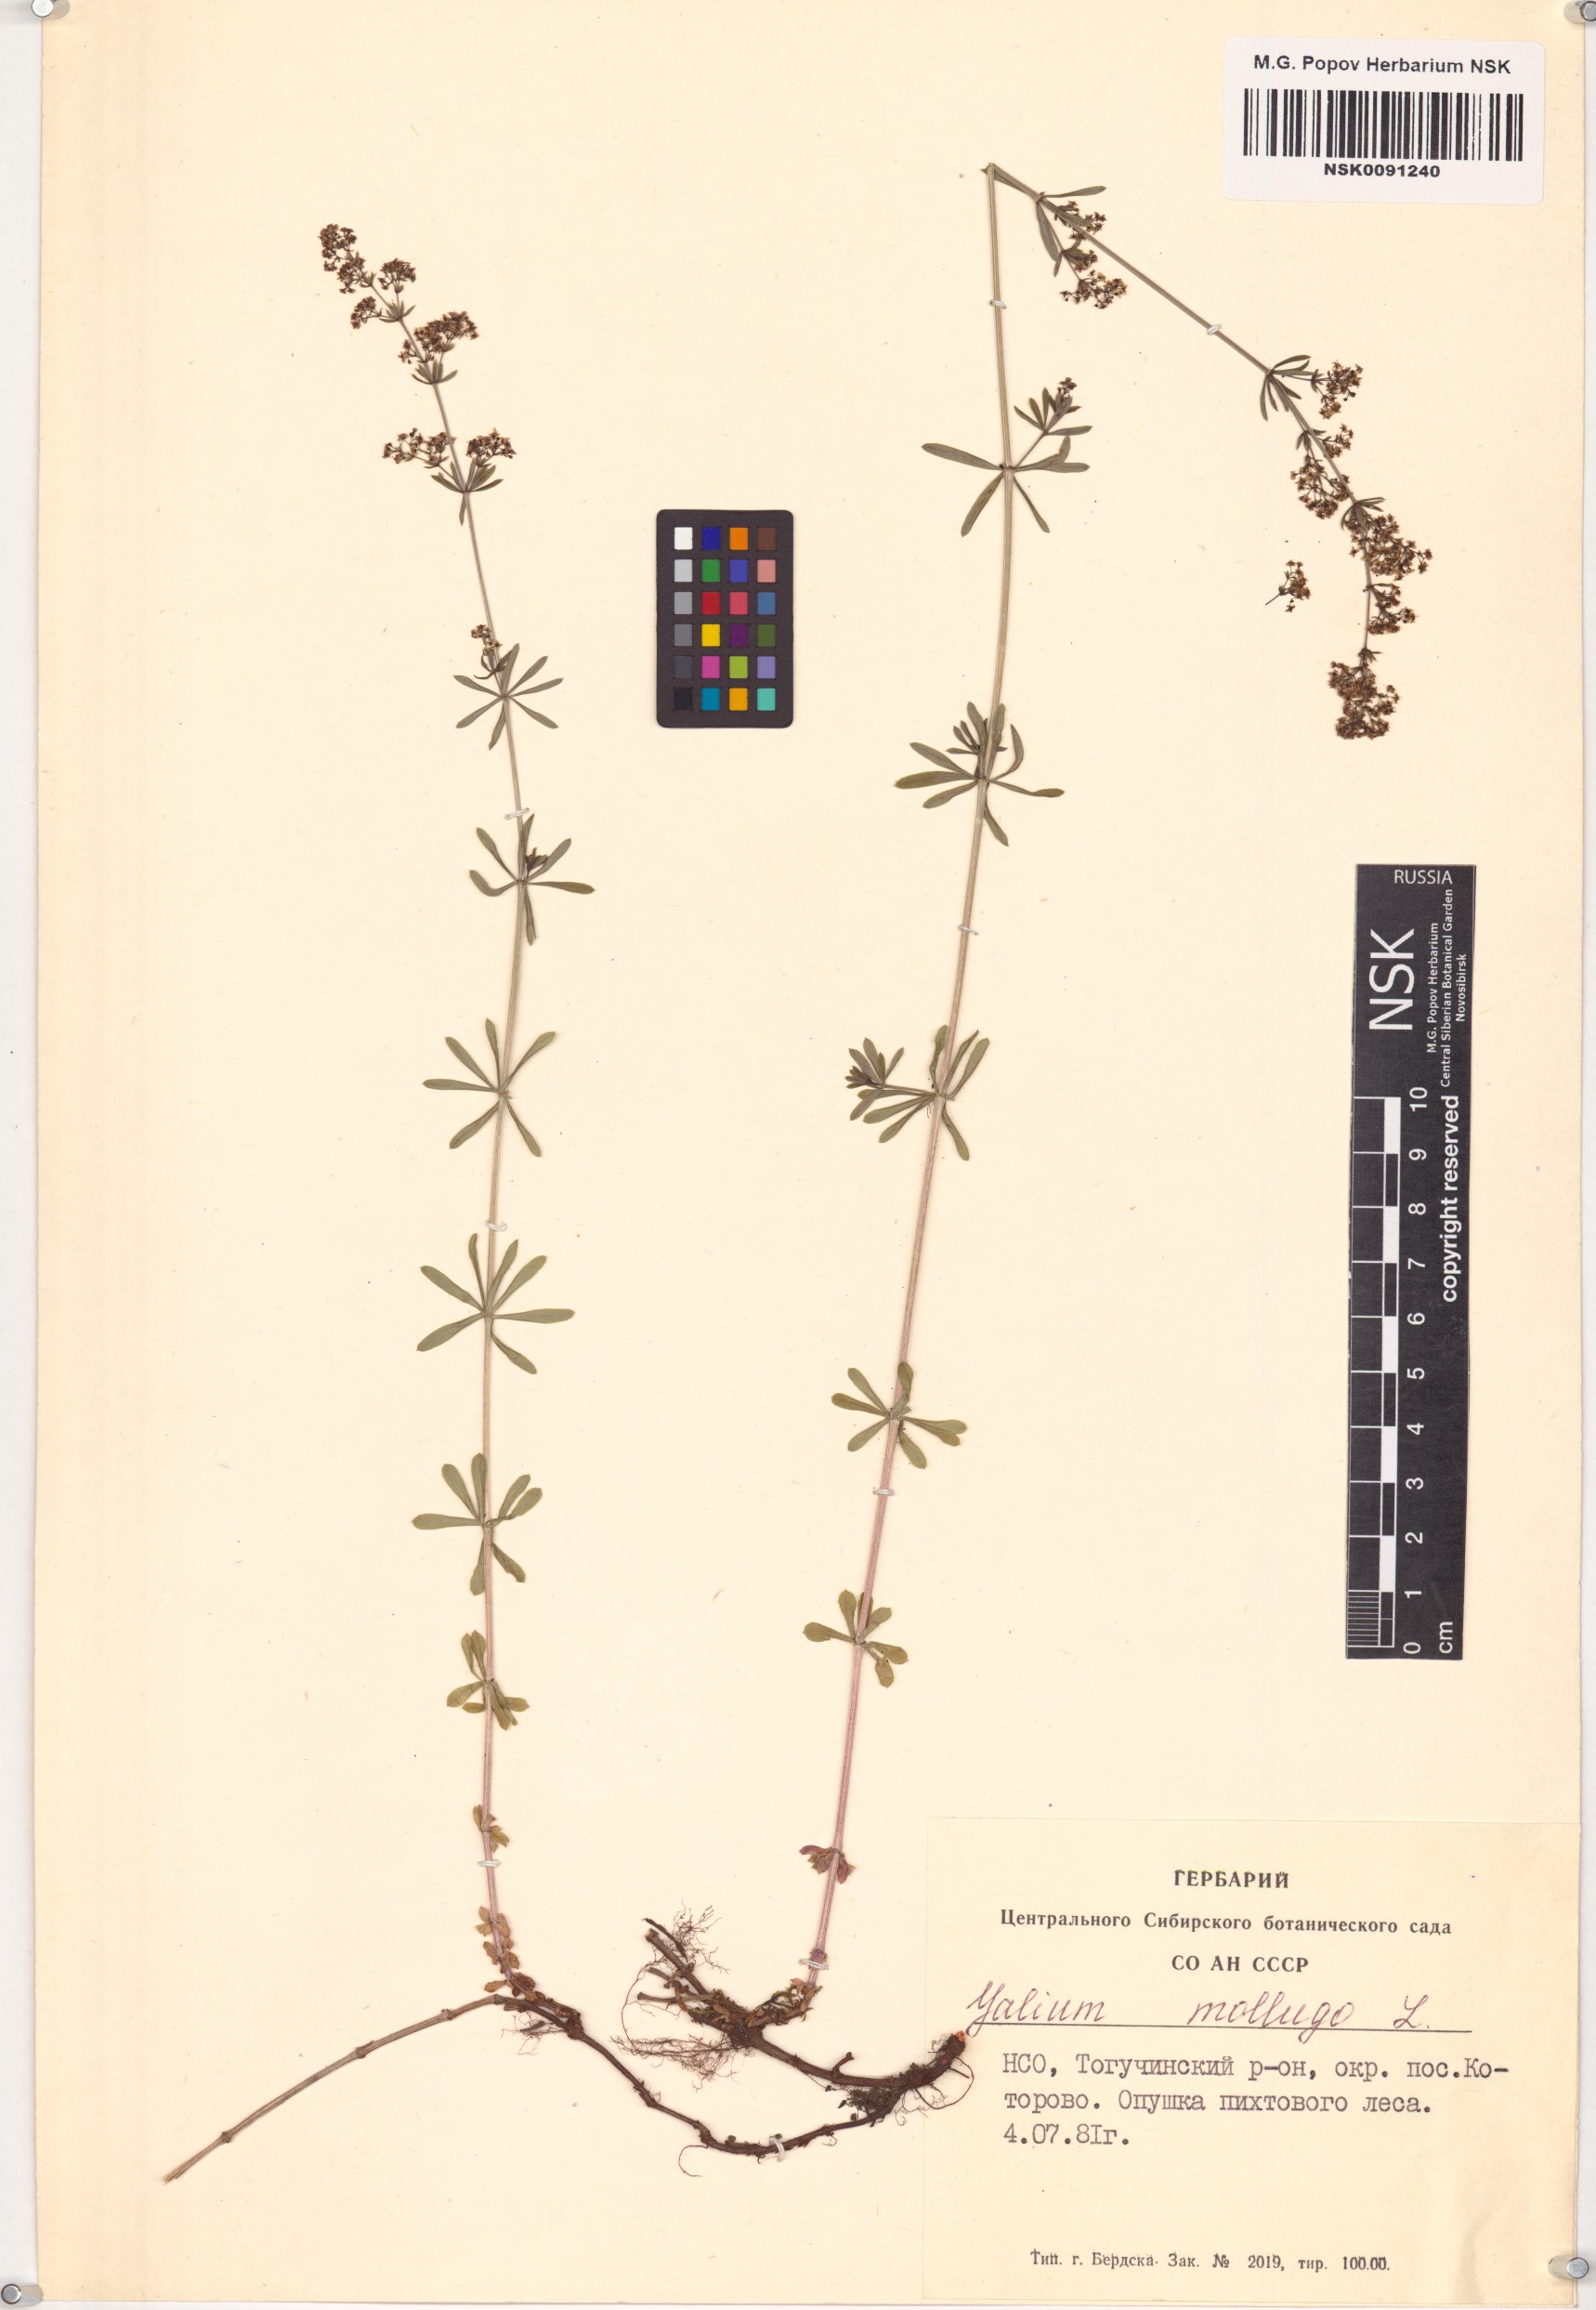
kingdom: Plantae
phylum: Tracheophyta
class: Magnoliopsida
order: Gentianales
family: Rubiaceae
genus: Galium
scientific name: Galium mollugo
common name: Hedge bedstraw
